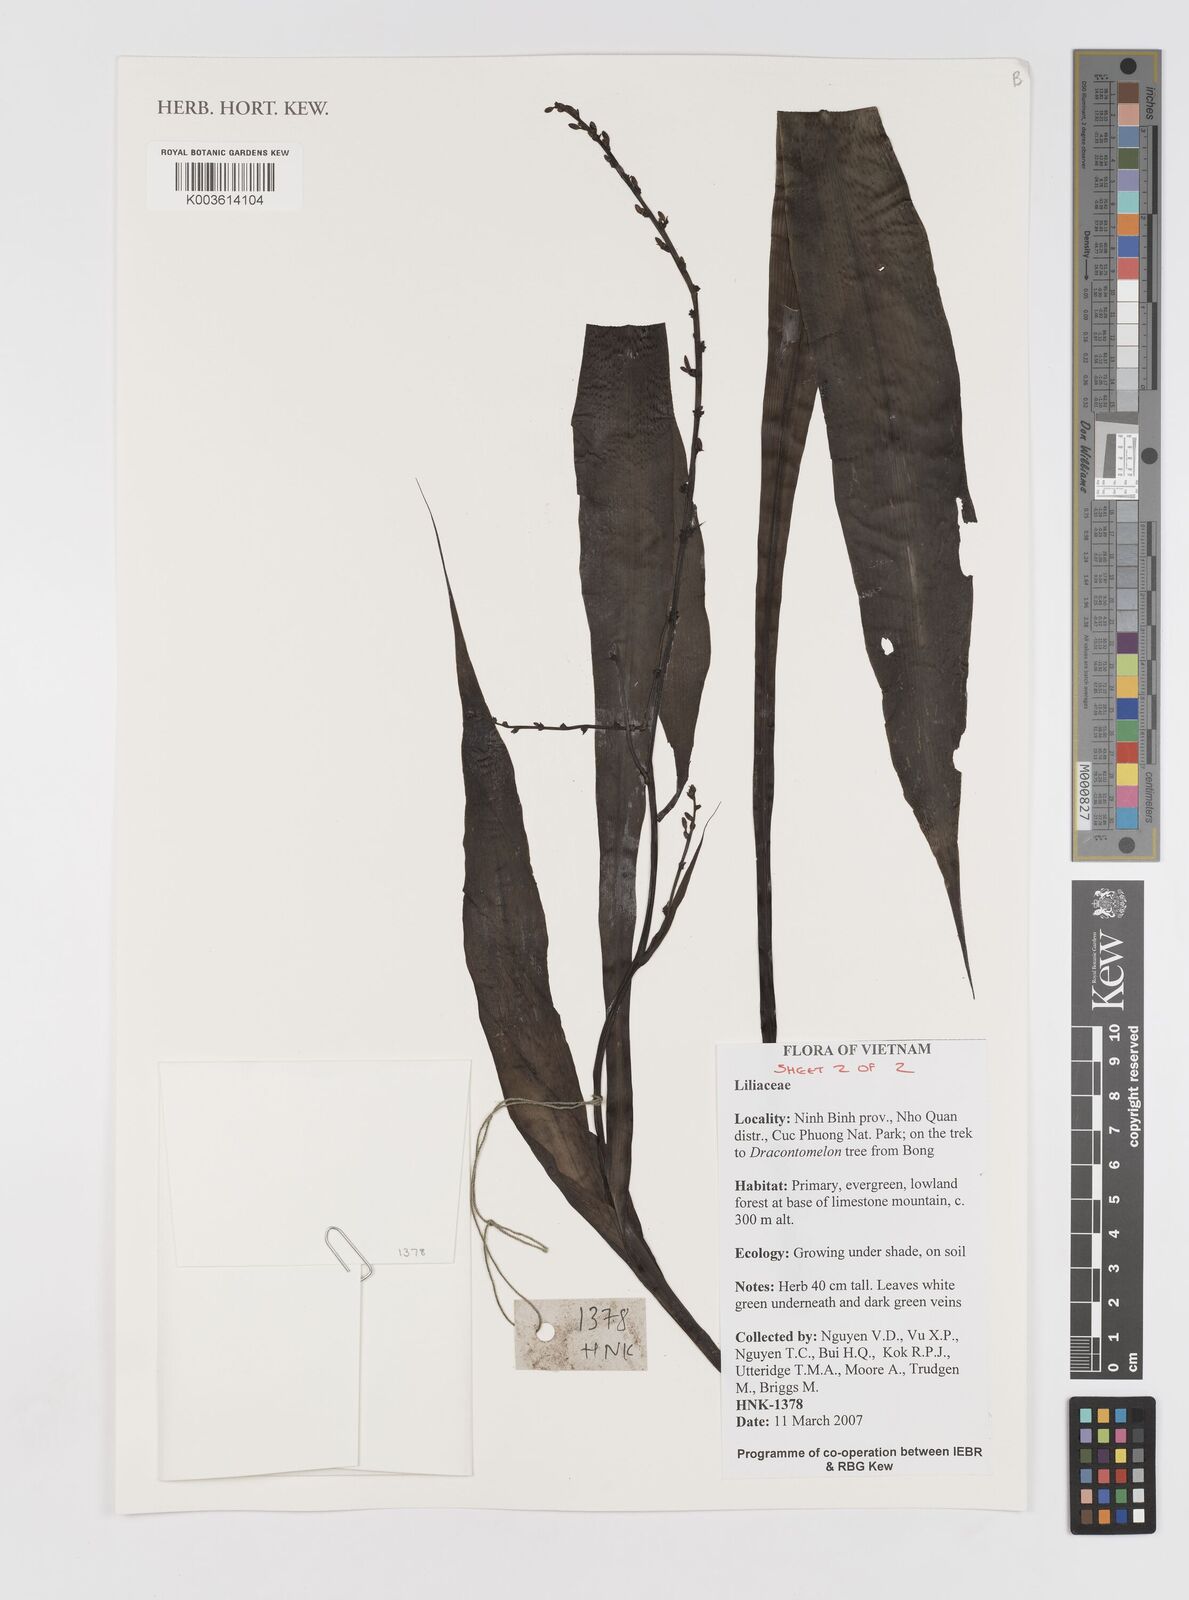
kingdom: Plantae
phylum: Tracheophyta
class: Liliopsida
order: Asparagales
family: Hypoxidaceae
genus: Curculigo
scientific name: Curculigo
